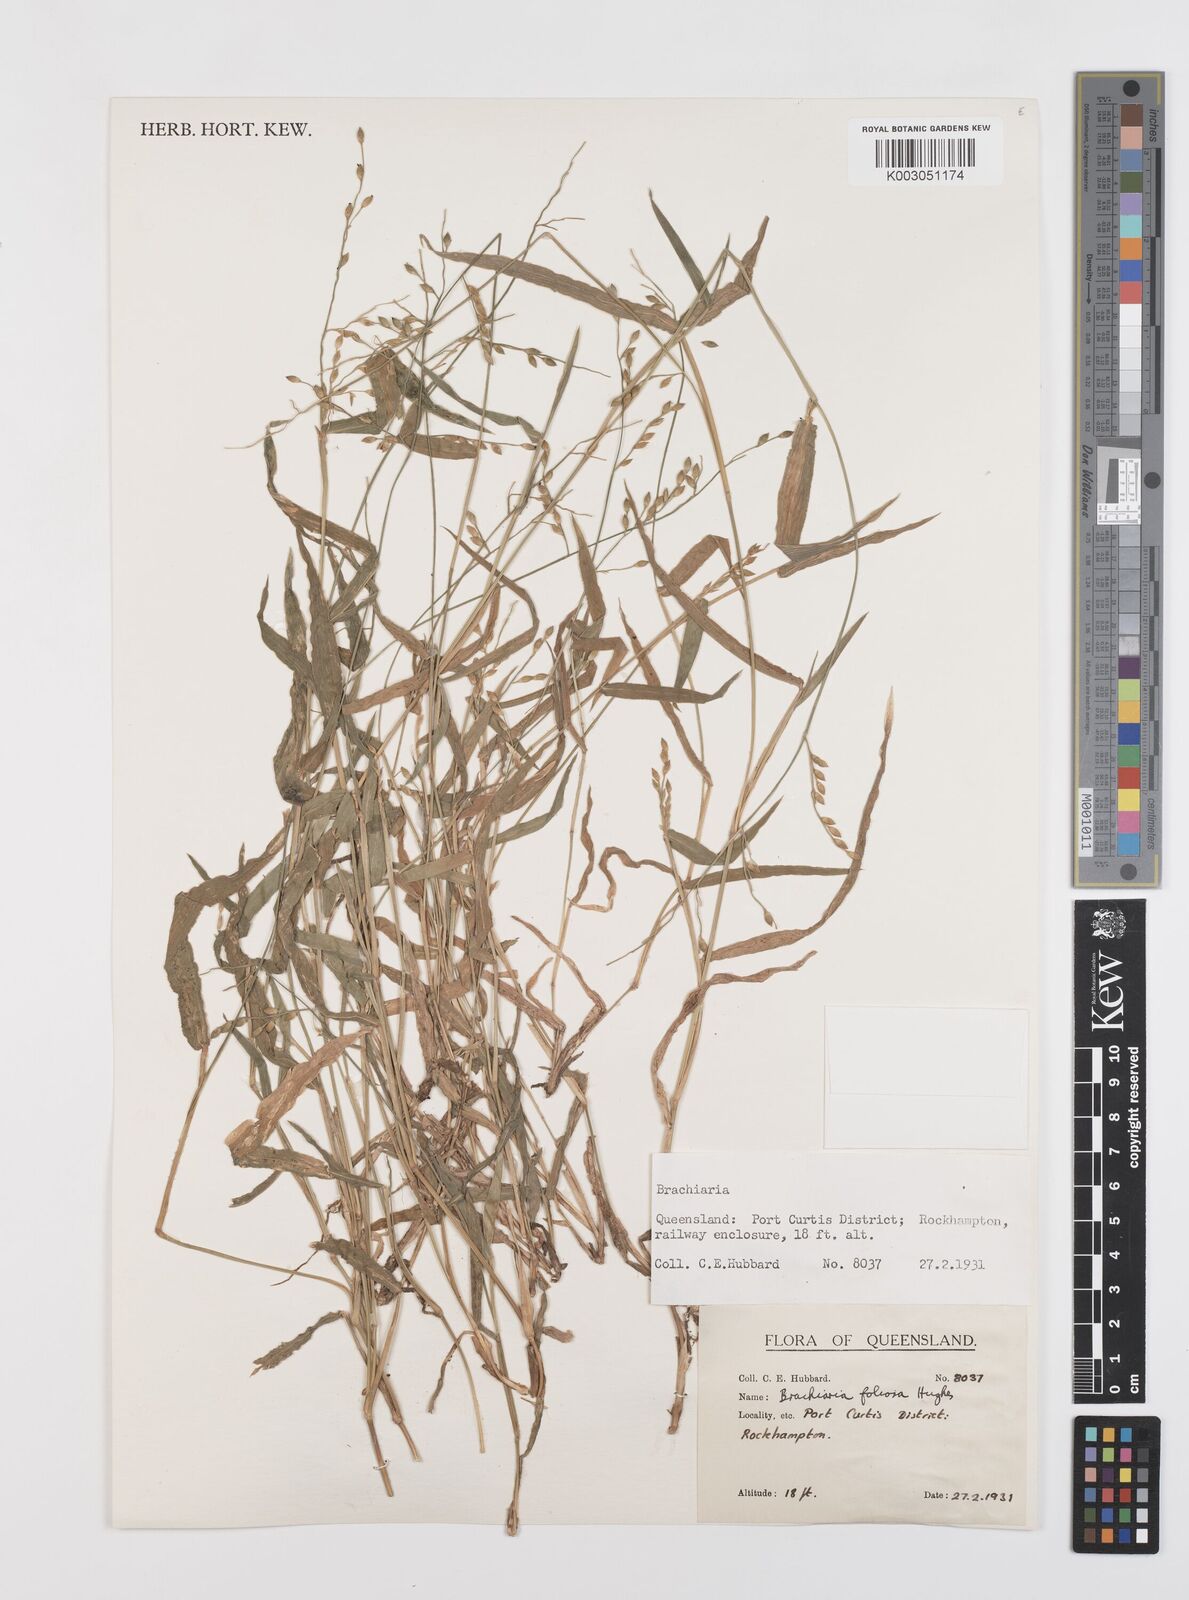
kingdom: Plantae
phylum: Tracheophyta
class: Liliopsida
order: Poales
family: Poaceae
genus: Urochloa
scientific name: Urochloa foliosa
